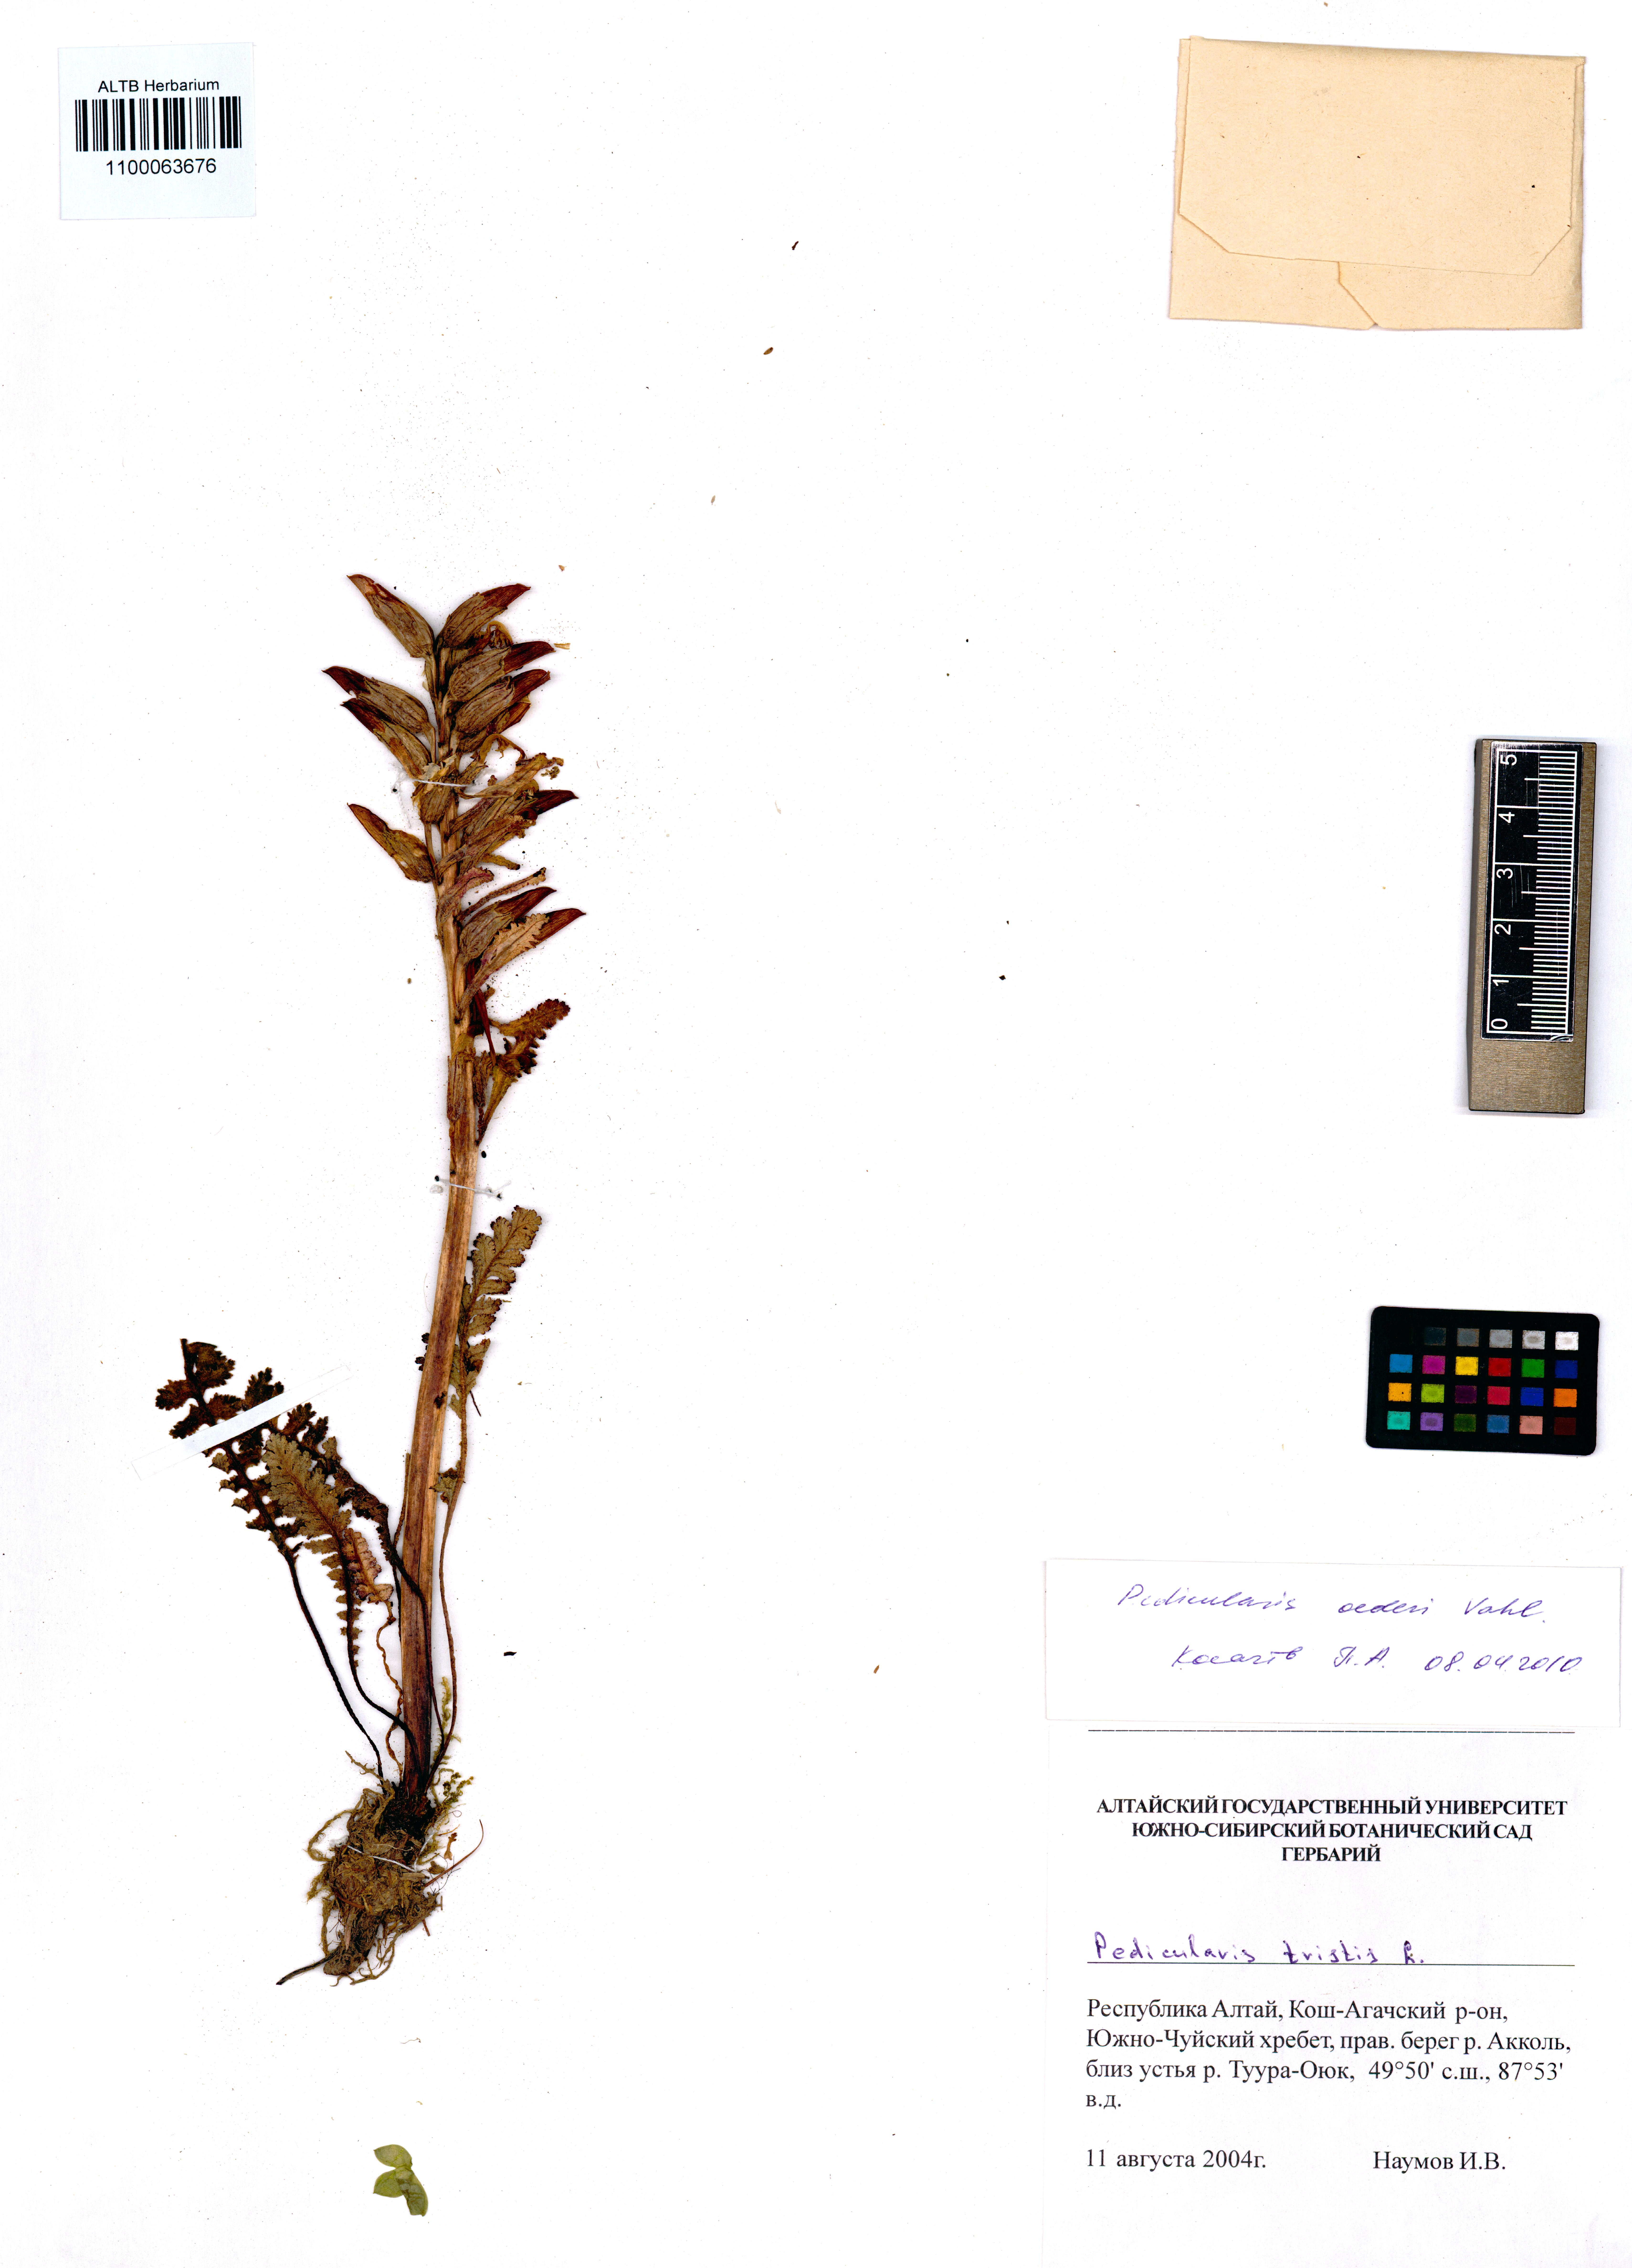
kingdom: Plantae
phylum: Tracheophyta
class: Magnoliopsida
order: Lamiales
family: Orobanchaceae
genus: Pedicularis
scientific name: Pedicularis oederi
